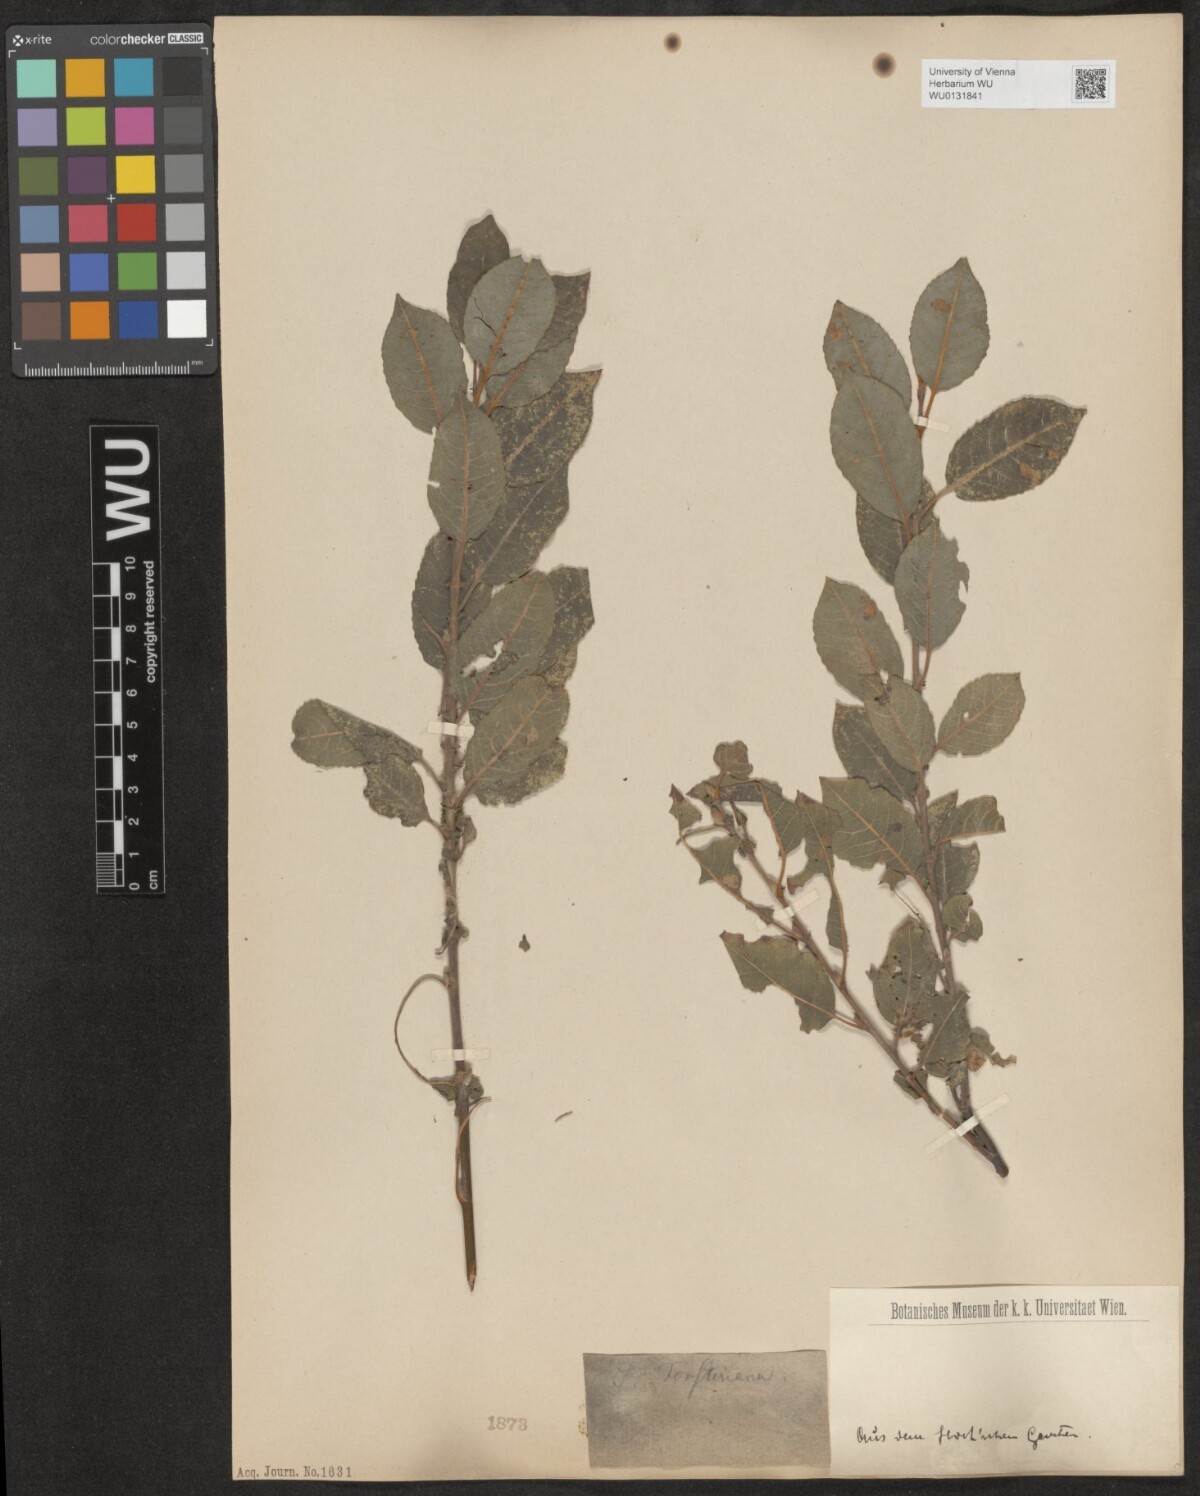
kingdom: Plantae
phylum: Tracheophyta
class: Magnoliopsida
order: Malpighiales
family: Salicaceae
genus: Salix
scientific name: Salix myrsinifolia
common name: Dark-leaved willow
